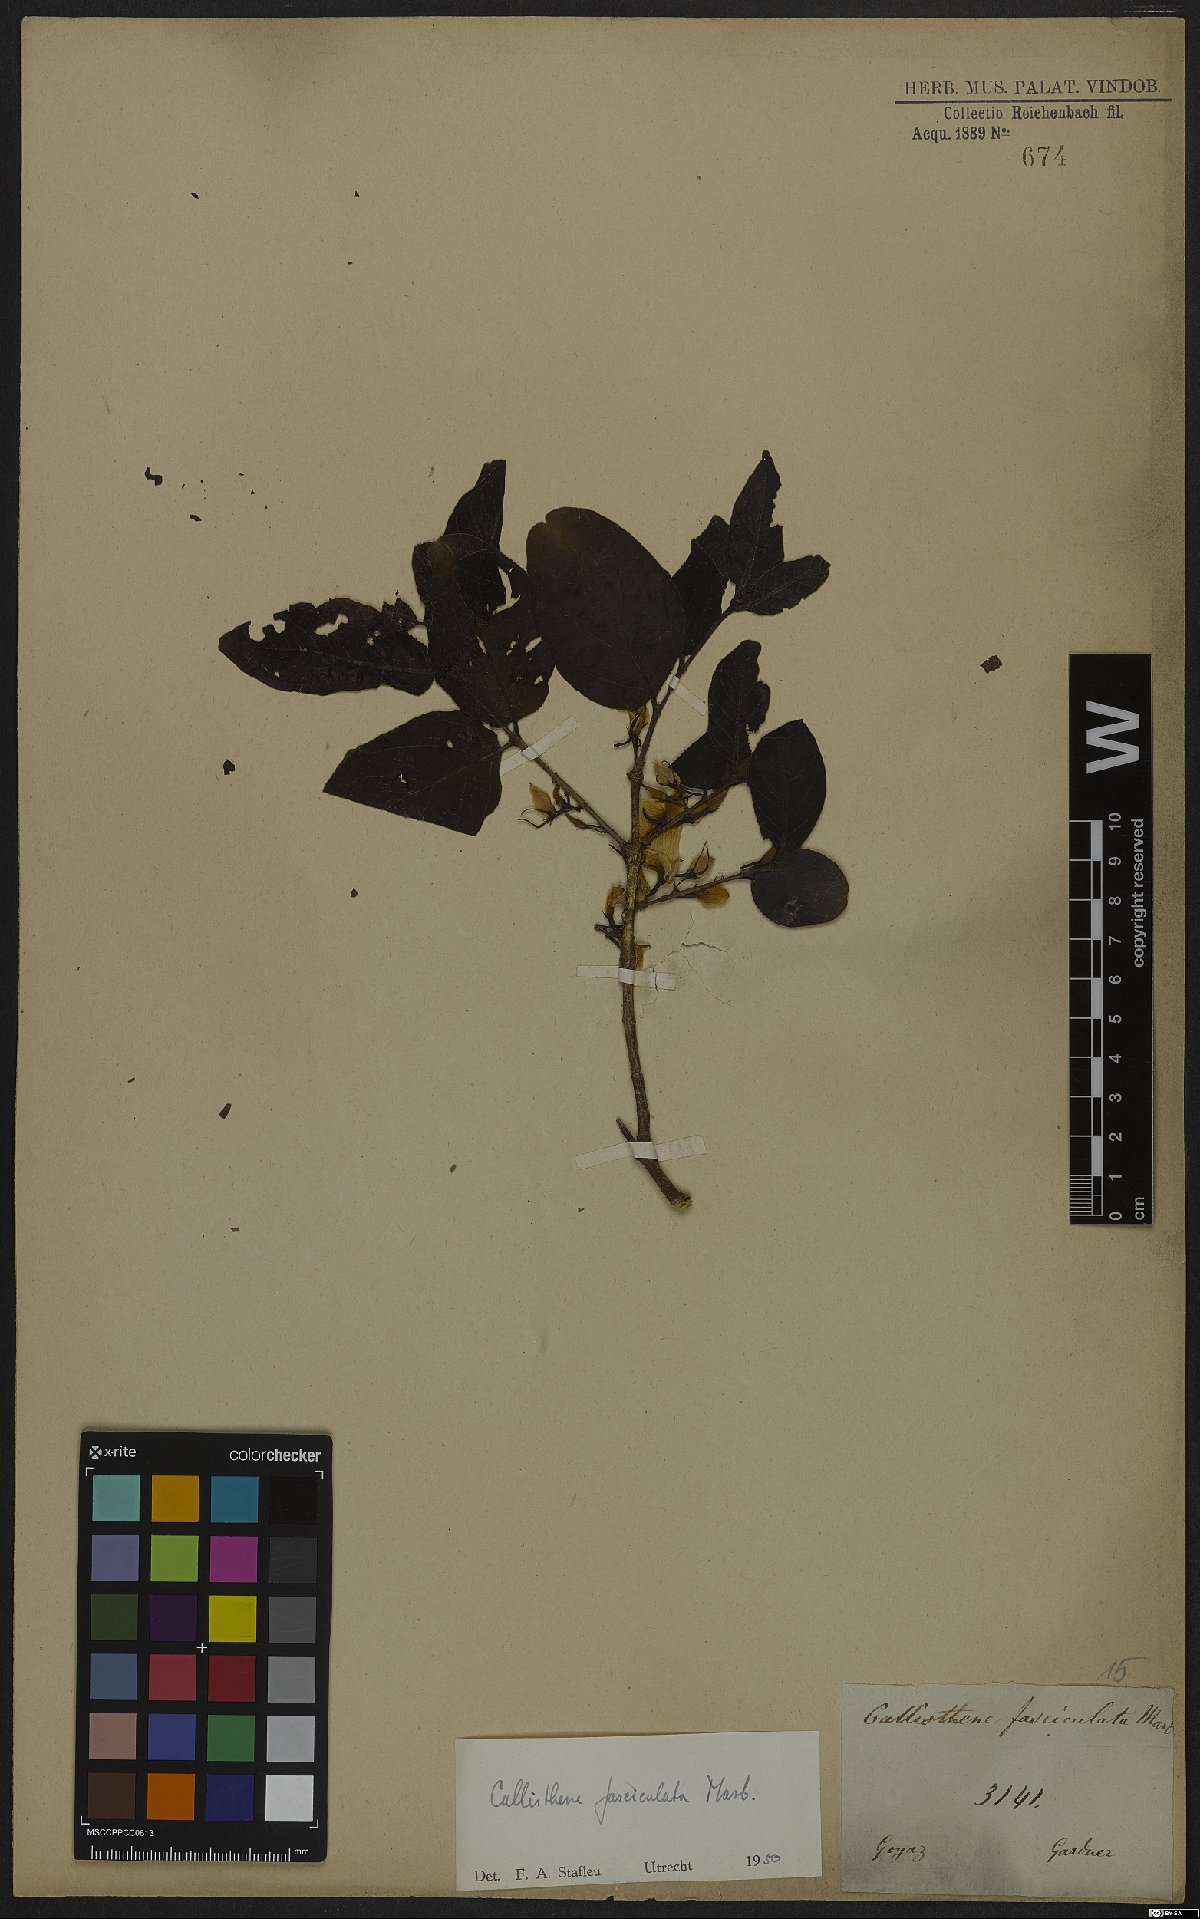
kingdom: Plantae
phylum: Tracheophyta
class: Magnoliopsida
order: Myrtales
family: Vochysiaceae
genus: Callisthene
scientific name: Callisthene fasciculata
